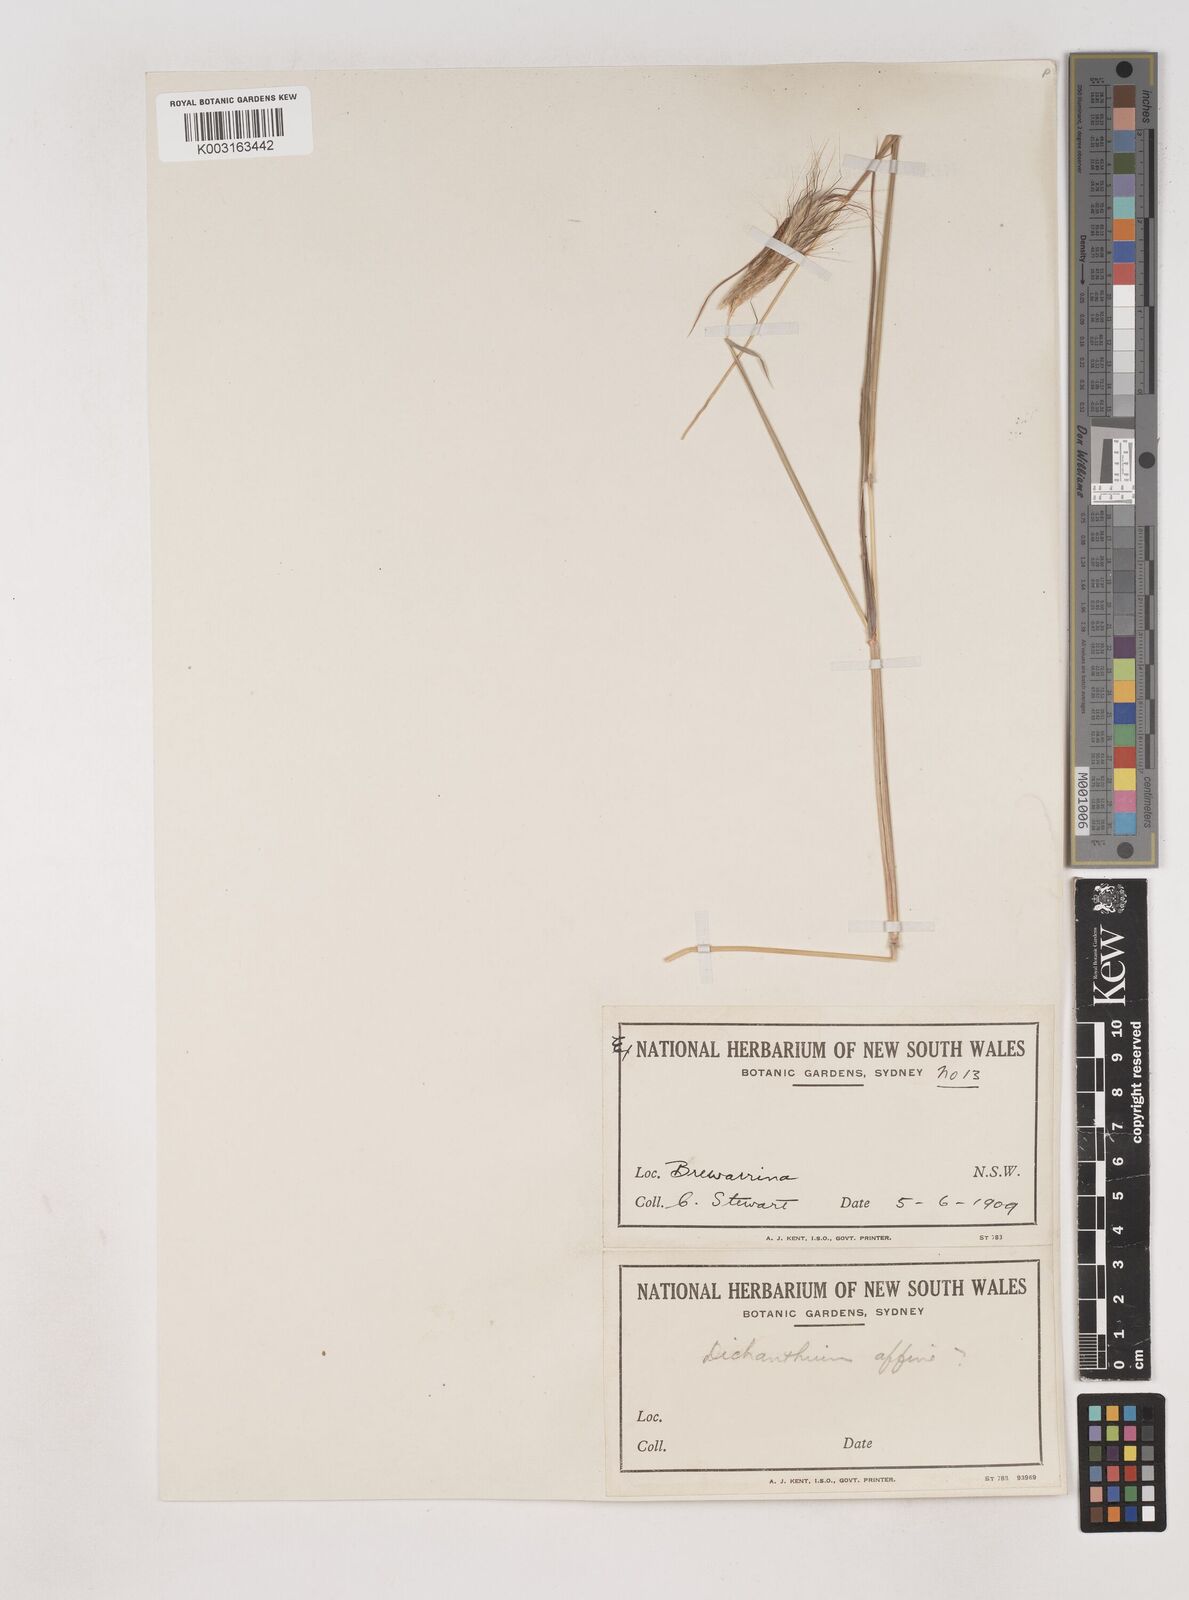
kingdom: Plantae
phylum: Tracheophyta
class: Liliopsida
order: Poales
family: Poaceae
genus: Dichanthium
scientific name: Dichanthium sericeum
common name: Silky bluestem
